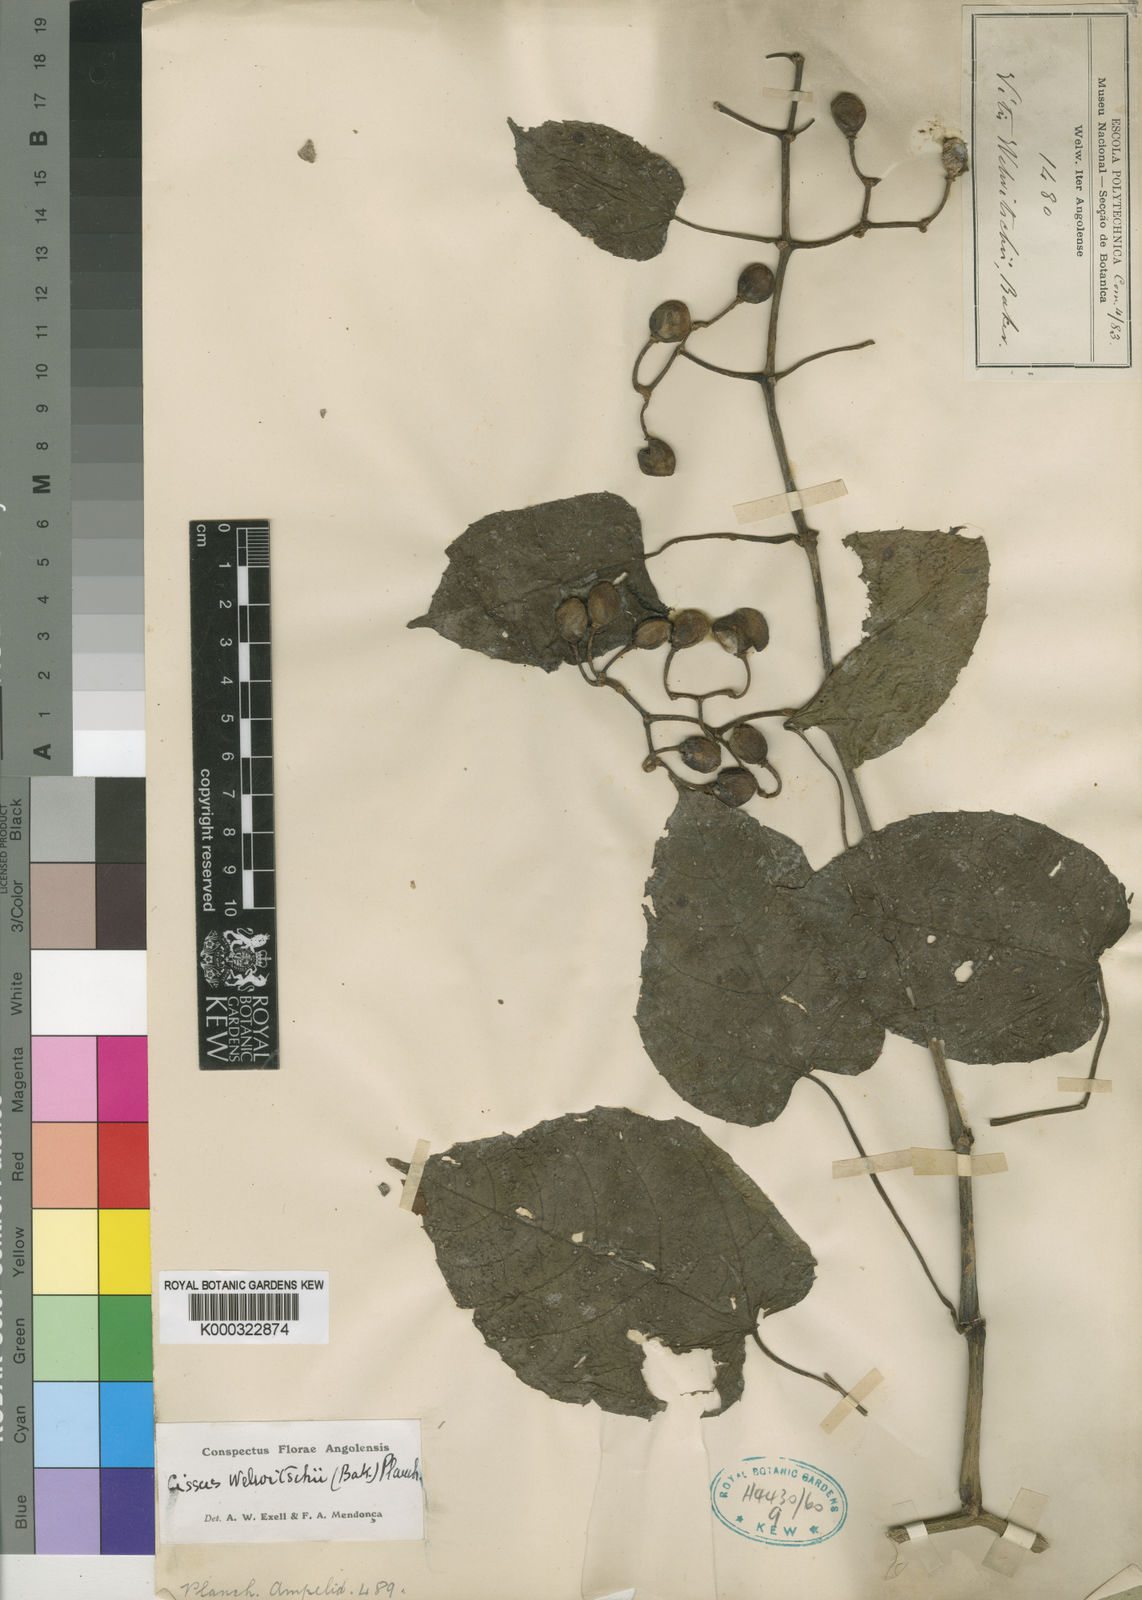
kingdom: Plantae
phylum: Tracheophyta
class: Magnoliopsida
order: Vitales
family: Vitaceae
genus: Cissus
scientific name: Cissus welwitschii
